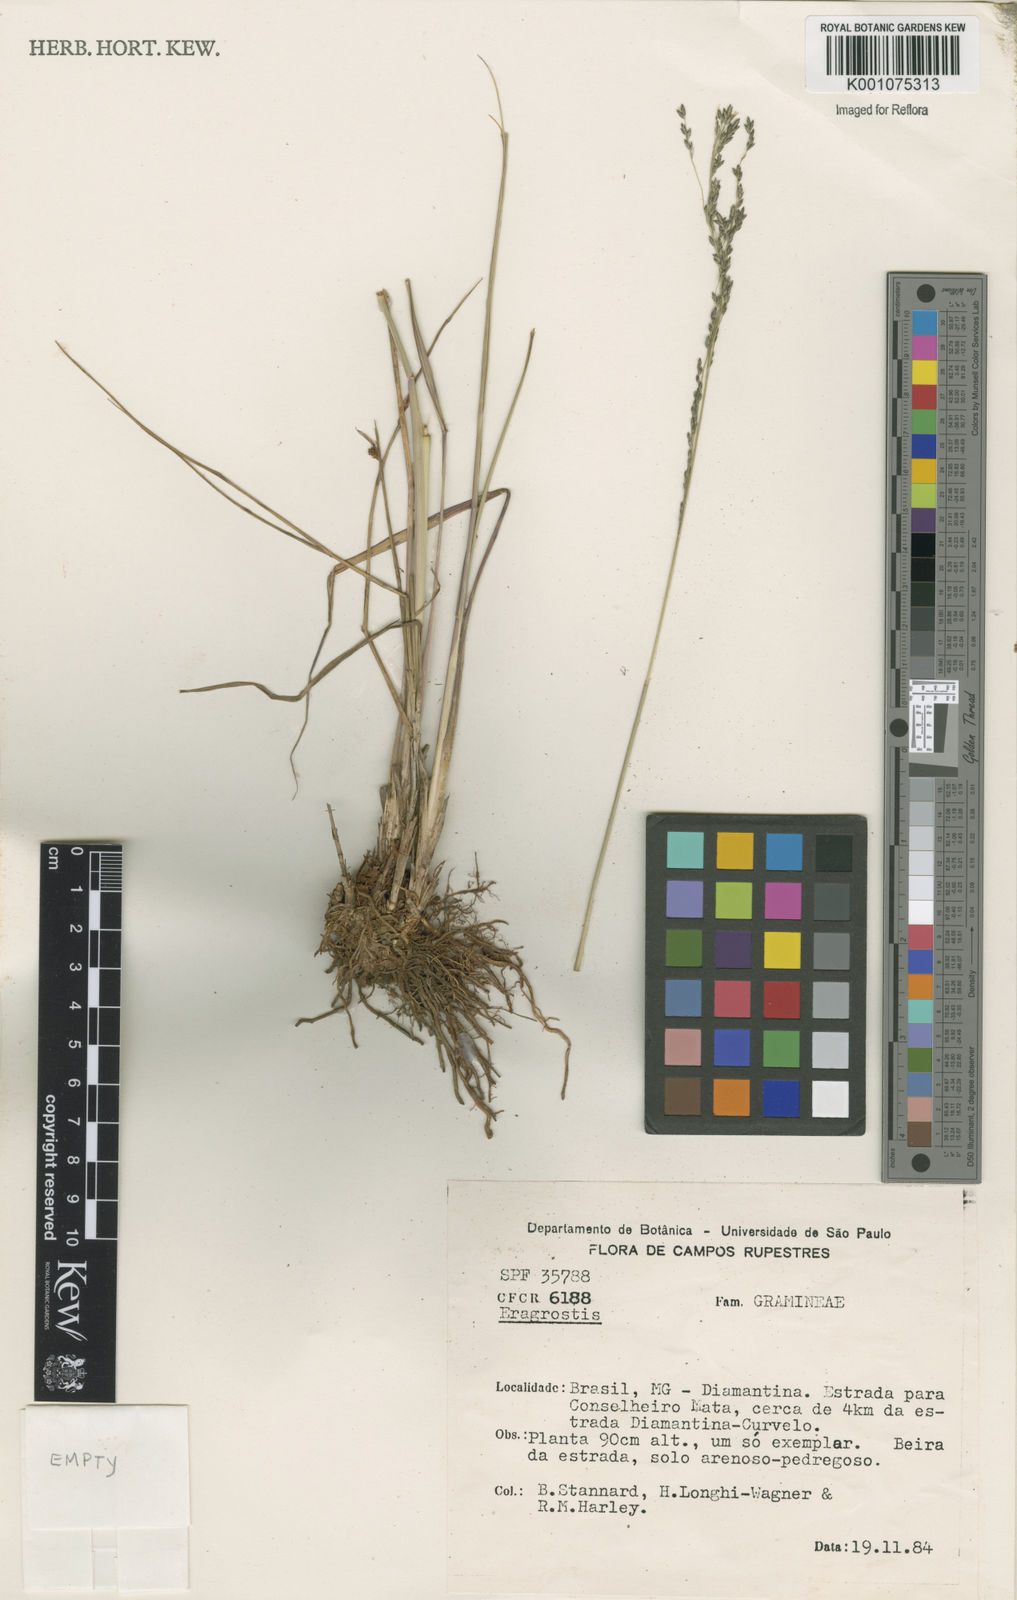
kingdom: Plantae
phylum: Tracheophyta
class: Liliopsida
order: Poales
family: Poaceae
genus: Eragrostis
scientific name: Eragrostis bahiensis
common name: Bahia lovegrass
